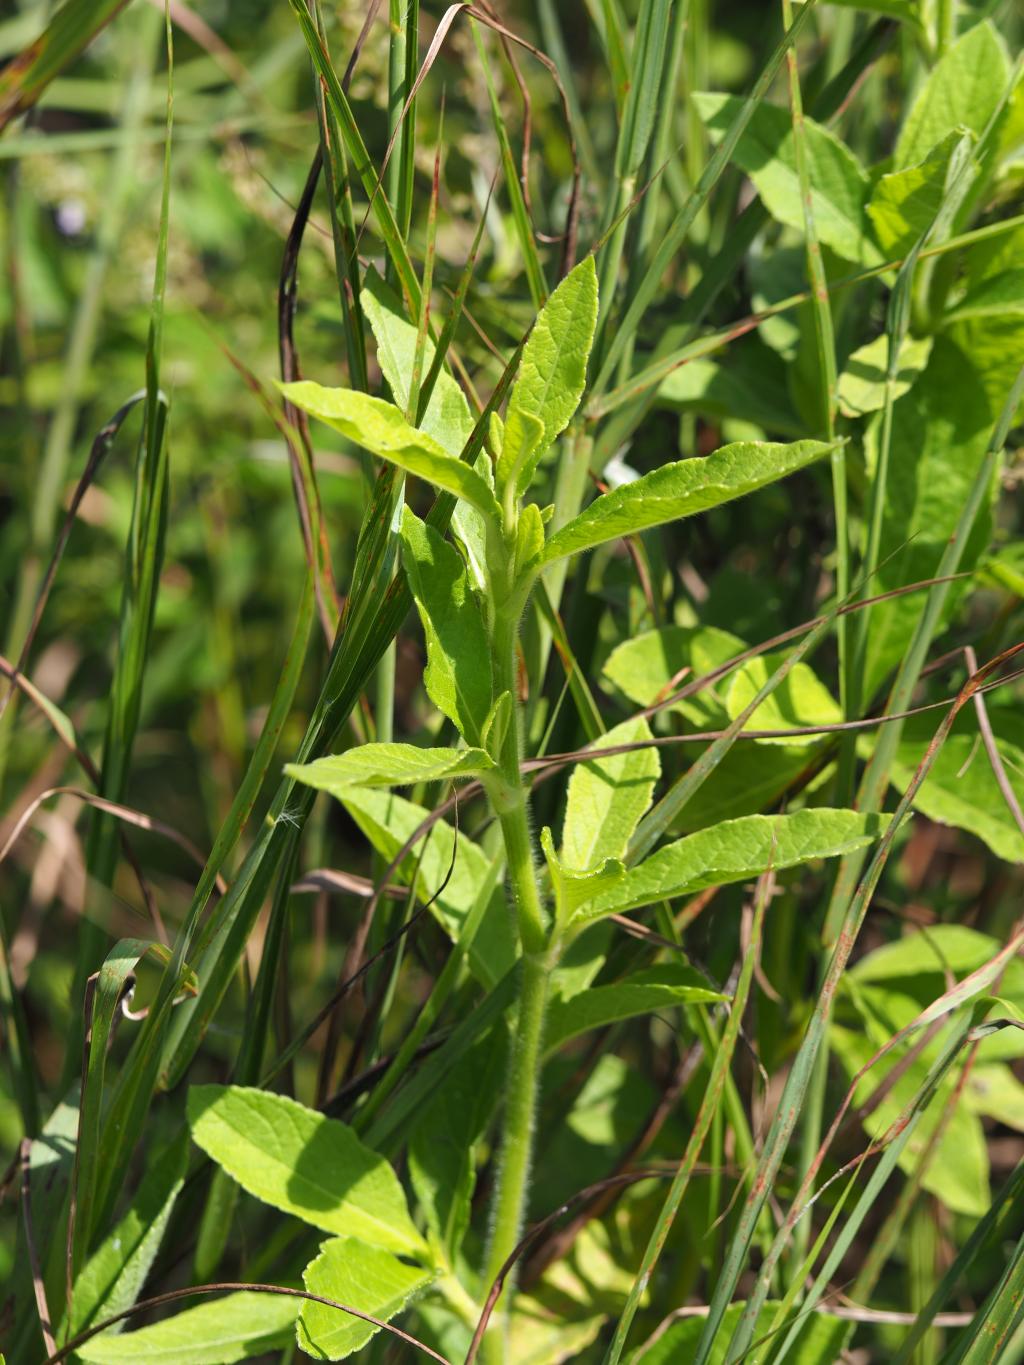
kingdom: Plantae
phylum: Tracheophyta
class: Magnoliopsida
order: Asterales
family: Asteraceae
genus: Elephantopus
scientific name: Elephantopus mollis
